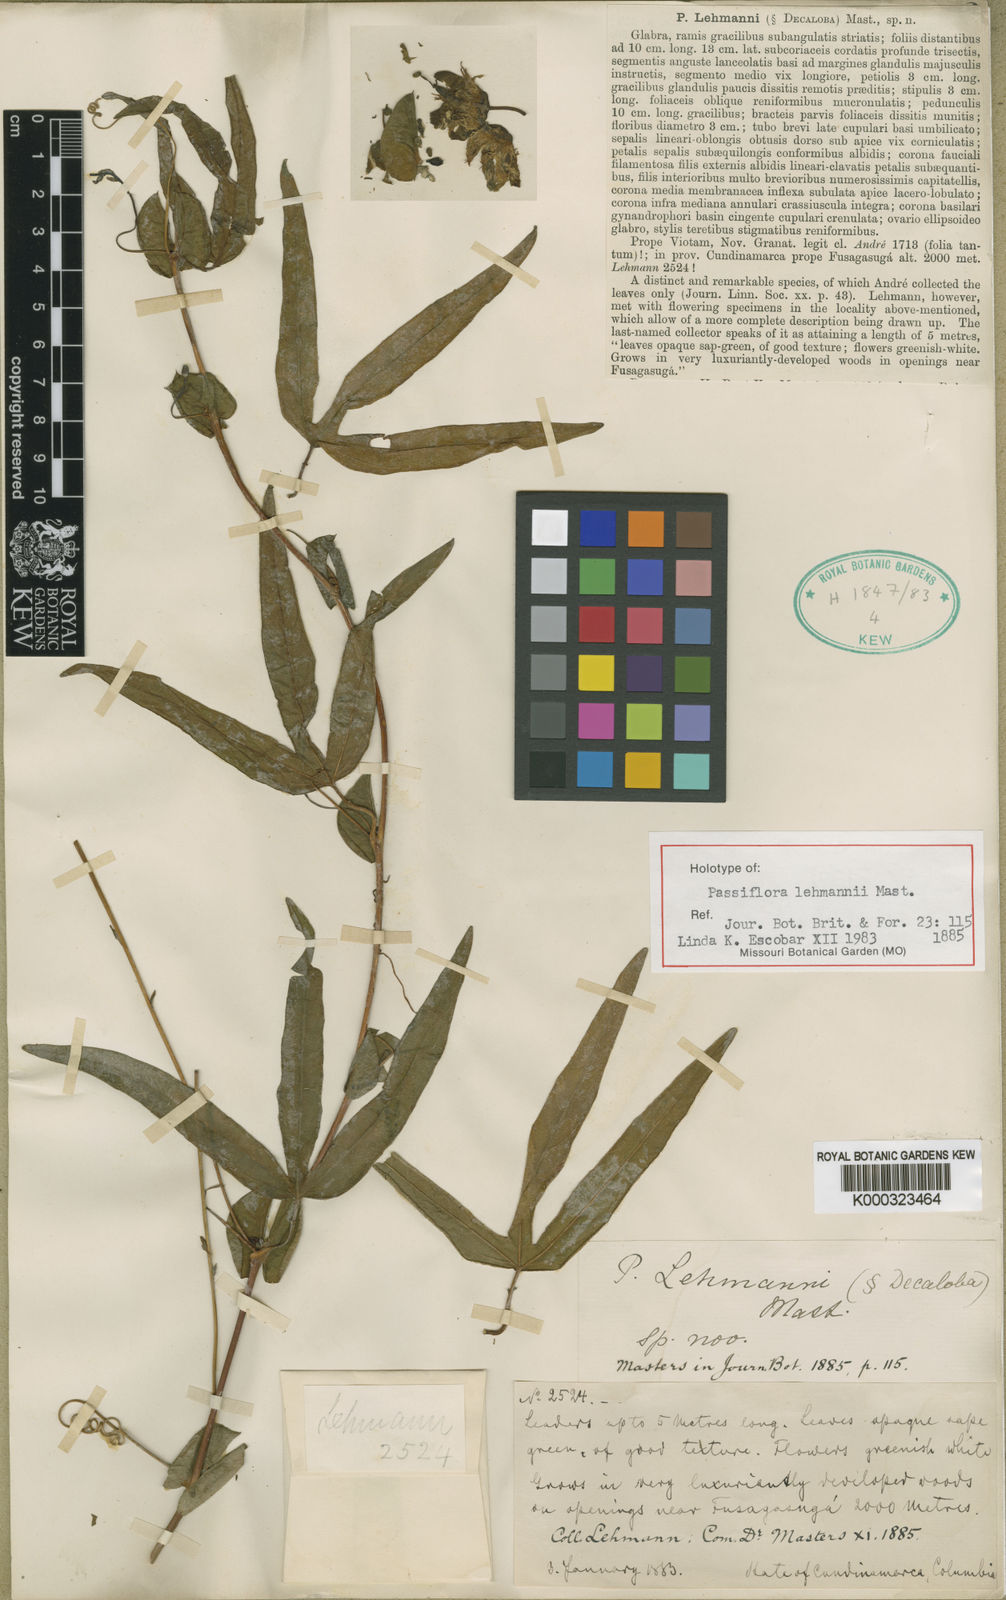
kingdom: Plantae
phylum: Tracheophyta
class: Magnoliopsida
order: Malpighiales
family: Passifloraceae
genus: Passiflora
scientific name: Passiflora lehmannii
